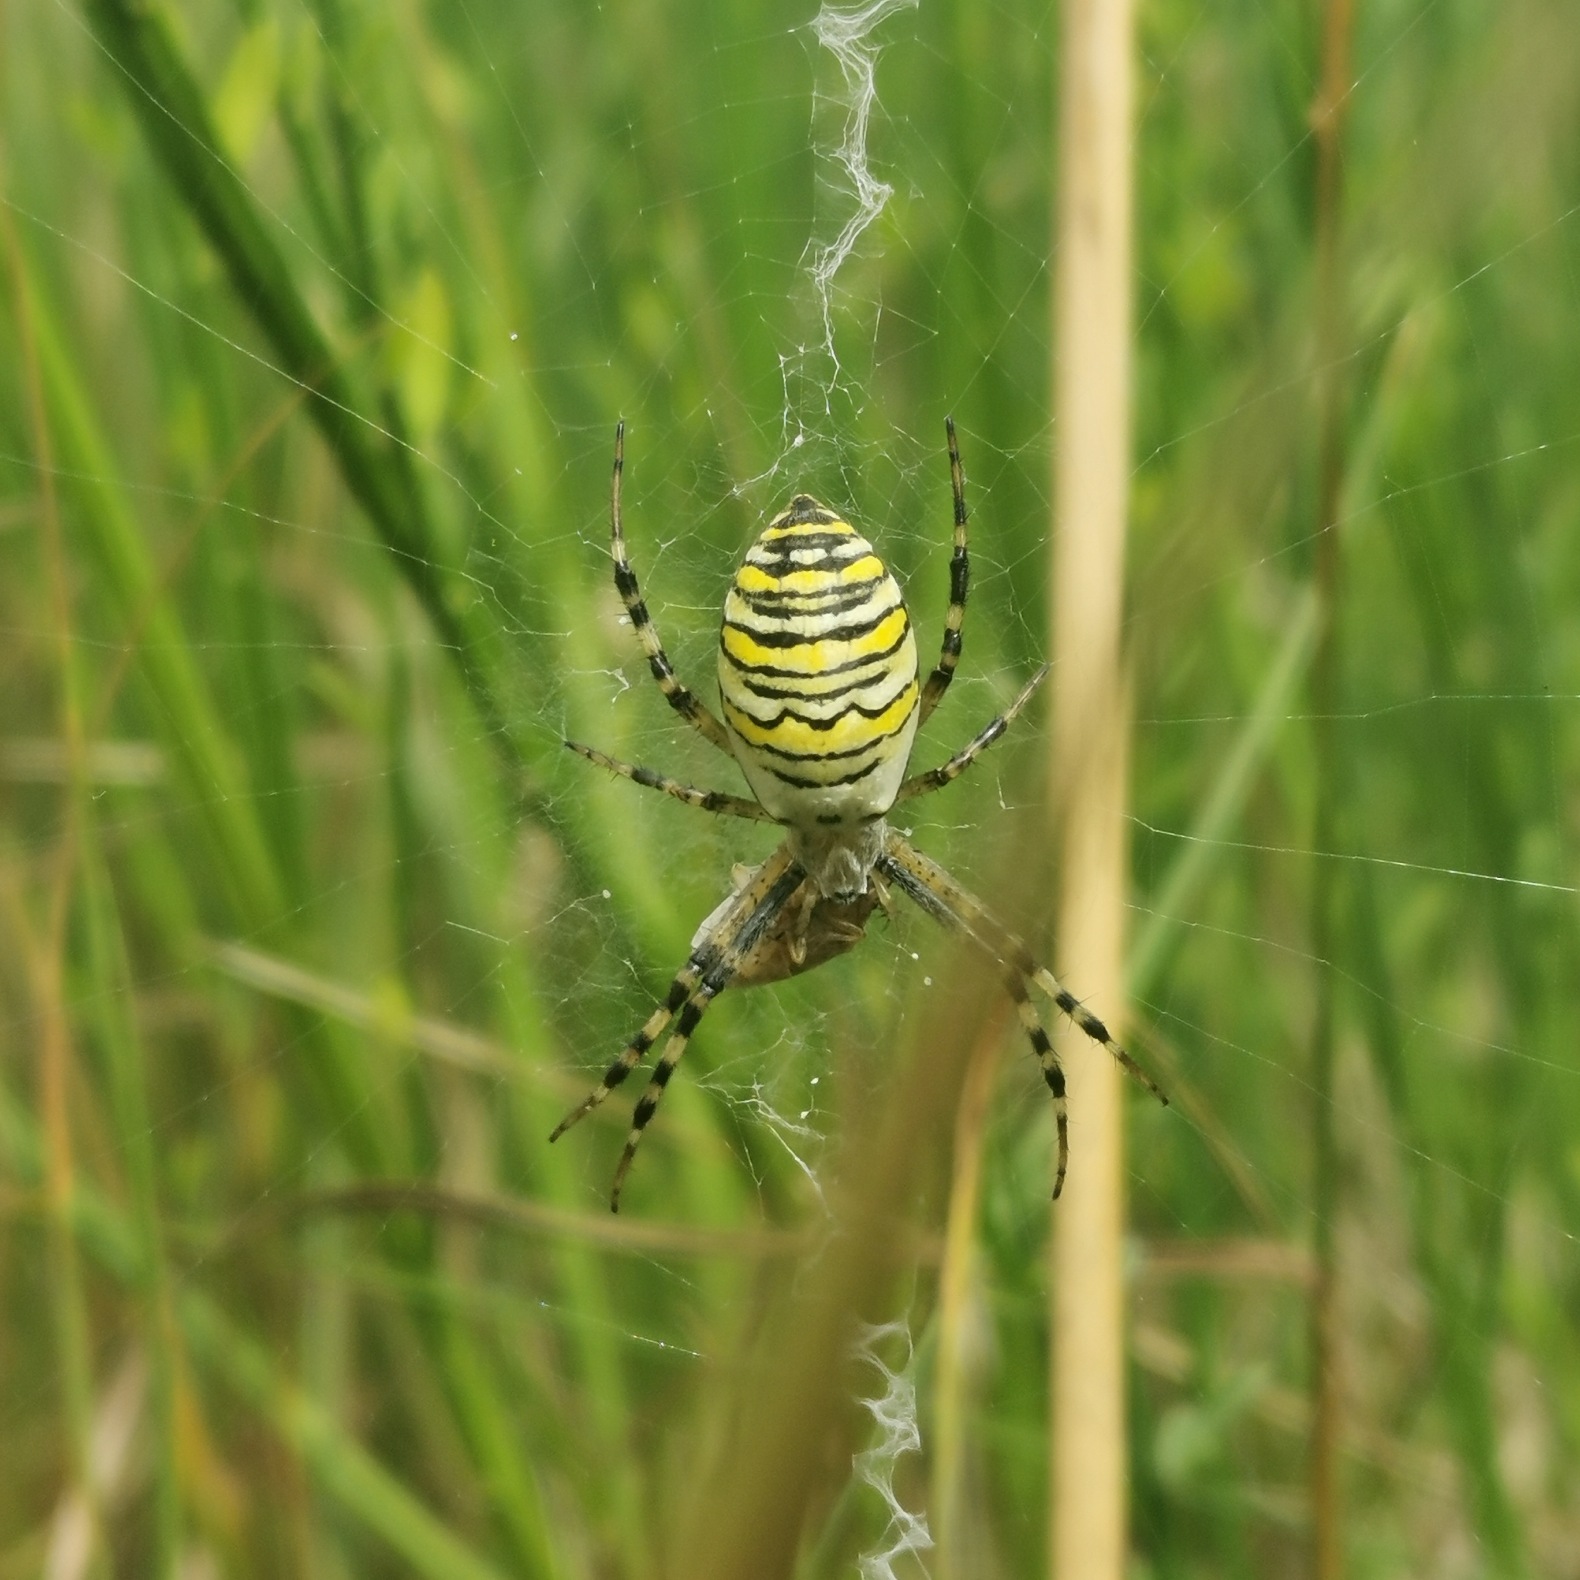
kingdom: Animalia
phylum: Arthropoda
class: Arachnida
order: Araneae
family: Araneidae
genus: Argiope
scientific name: Argiope bruennichi
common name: Hvepseedderkop
